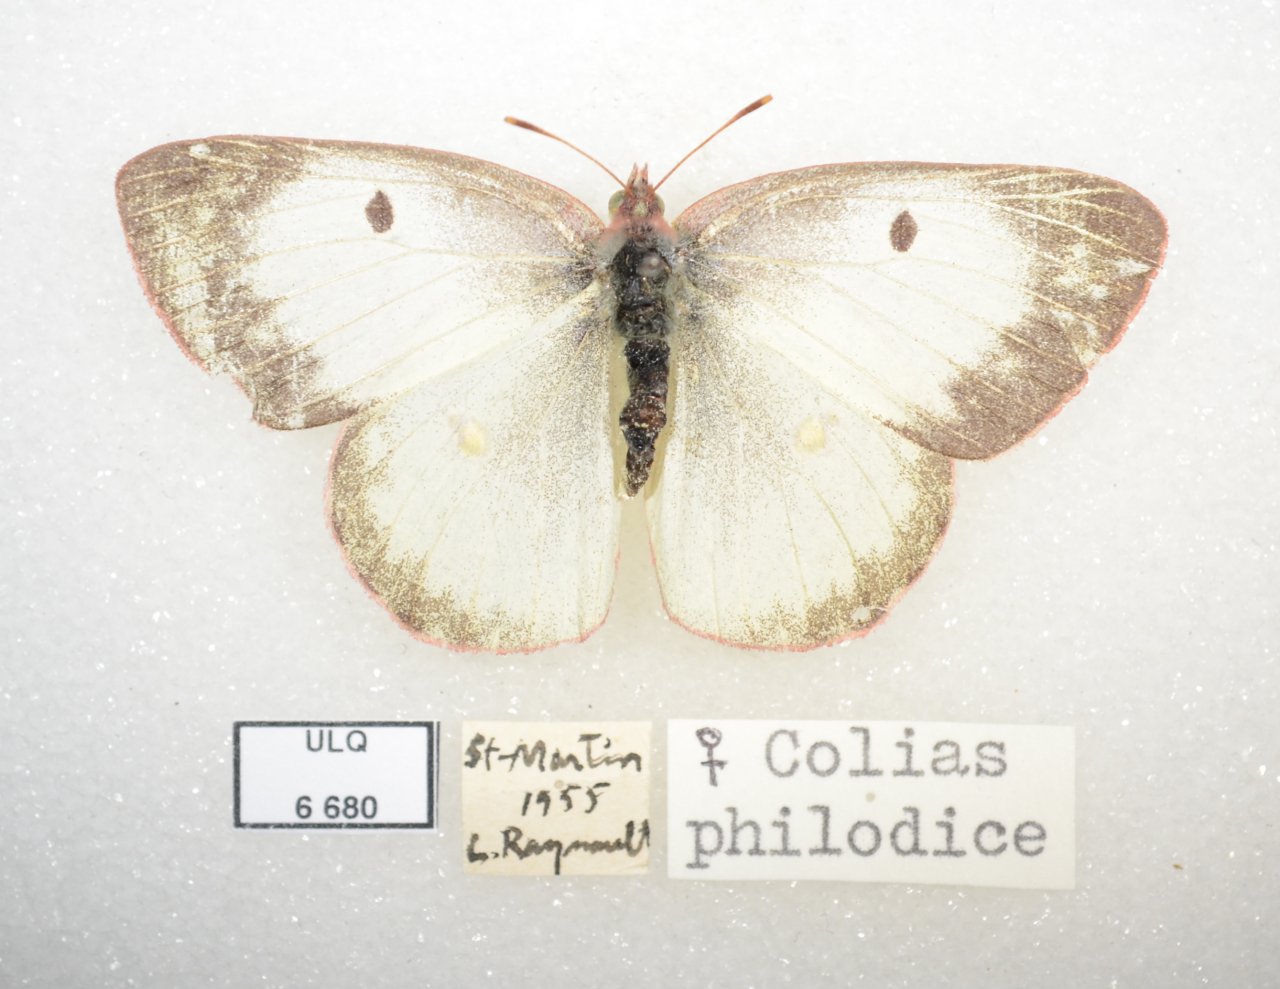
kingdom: Animalia
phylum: Arthropoda
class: Insecta
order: Lepidoptera
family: Pieridae
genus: Colias
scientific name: Colias philodice
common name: Clouded Sulphur
